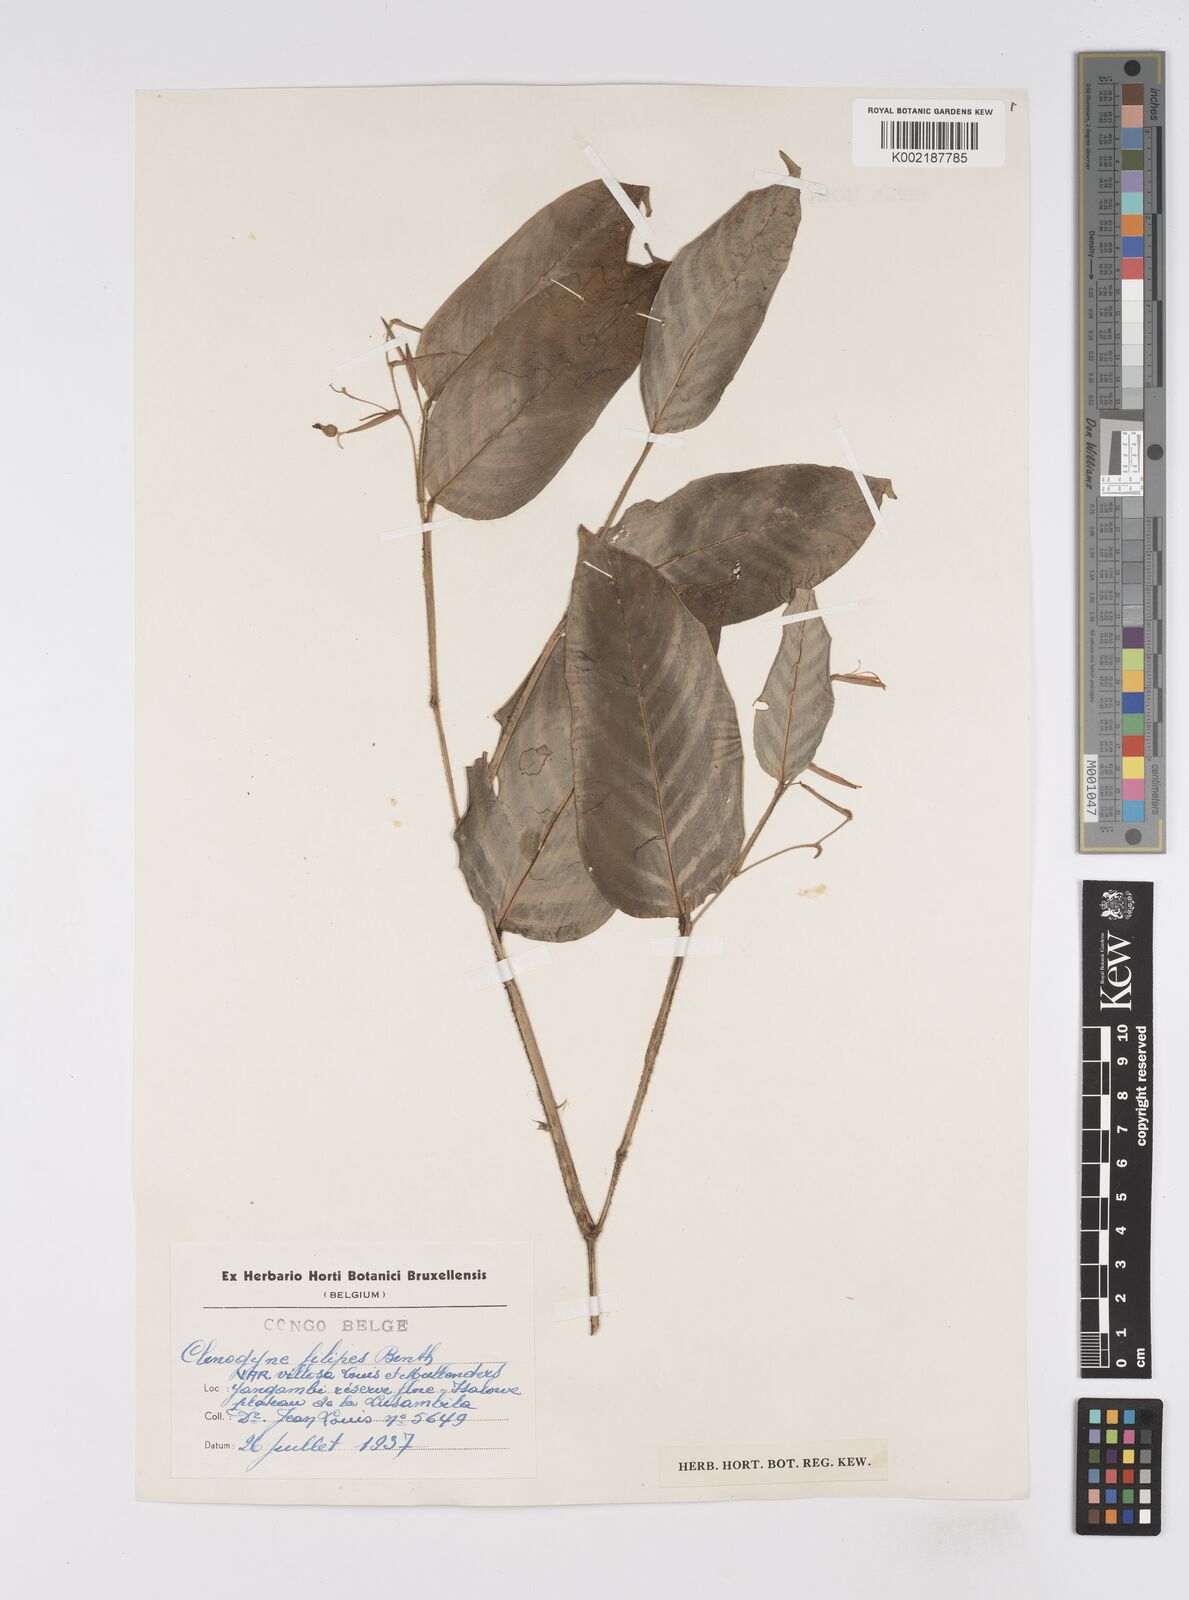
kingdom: Plantae
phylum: Tracheophyta
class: Liliopsida
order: Zingiberales
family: Marantaceae
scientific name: Marantaceae
